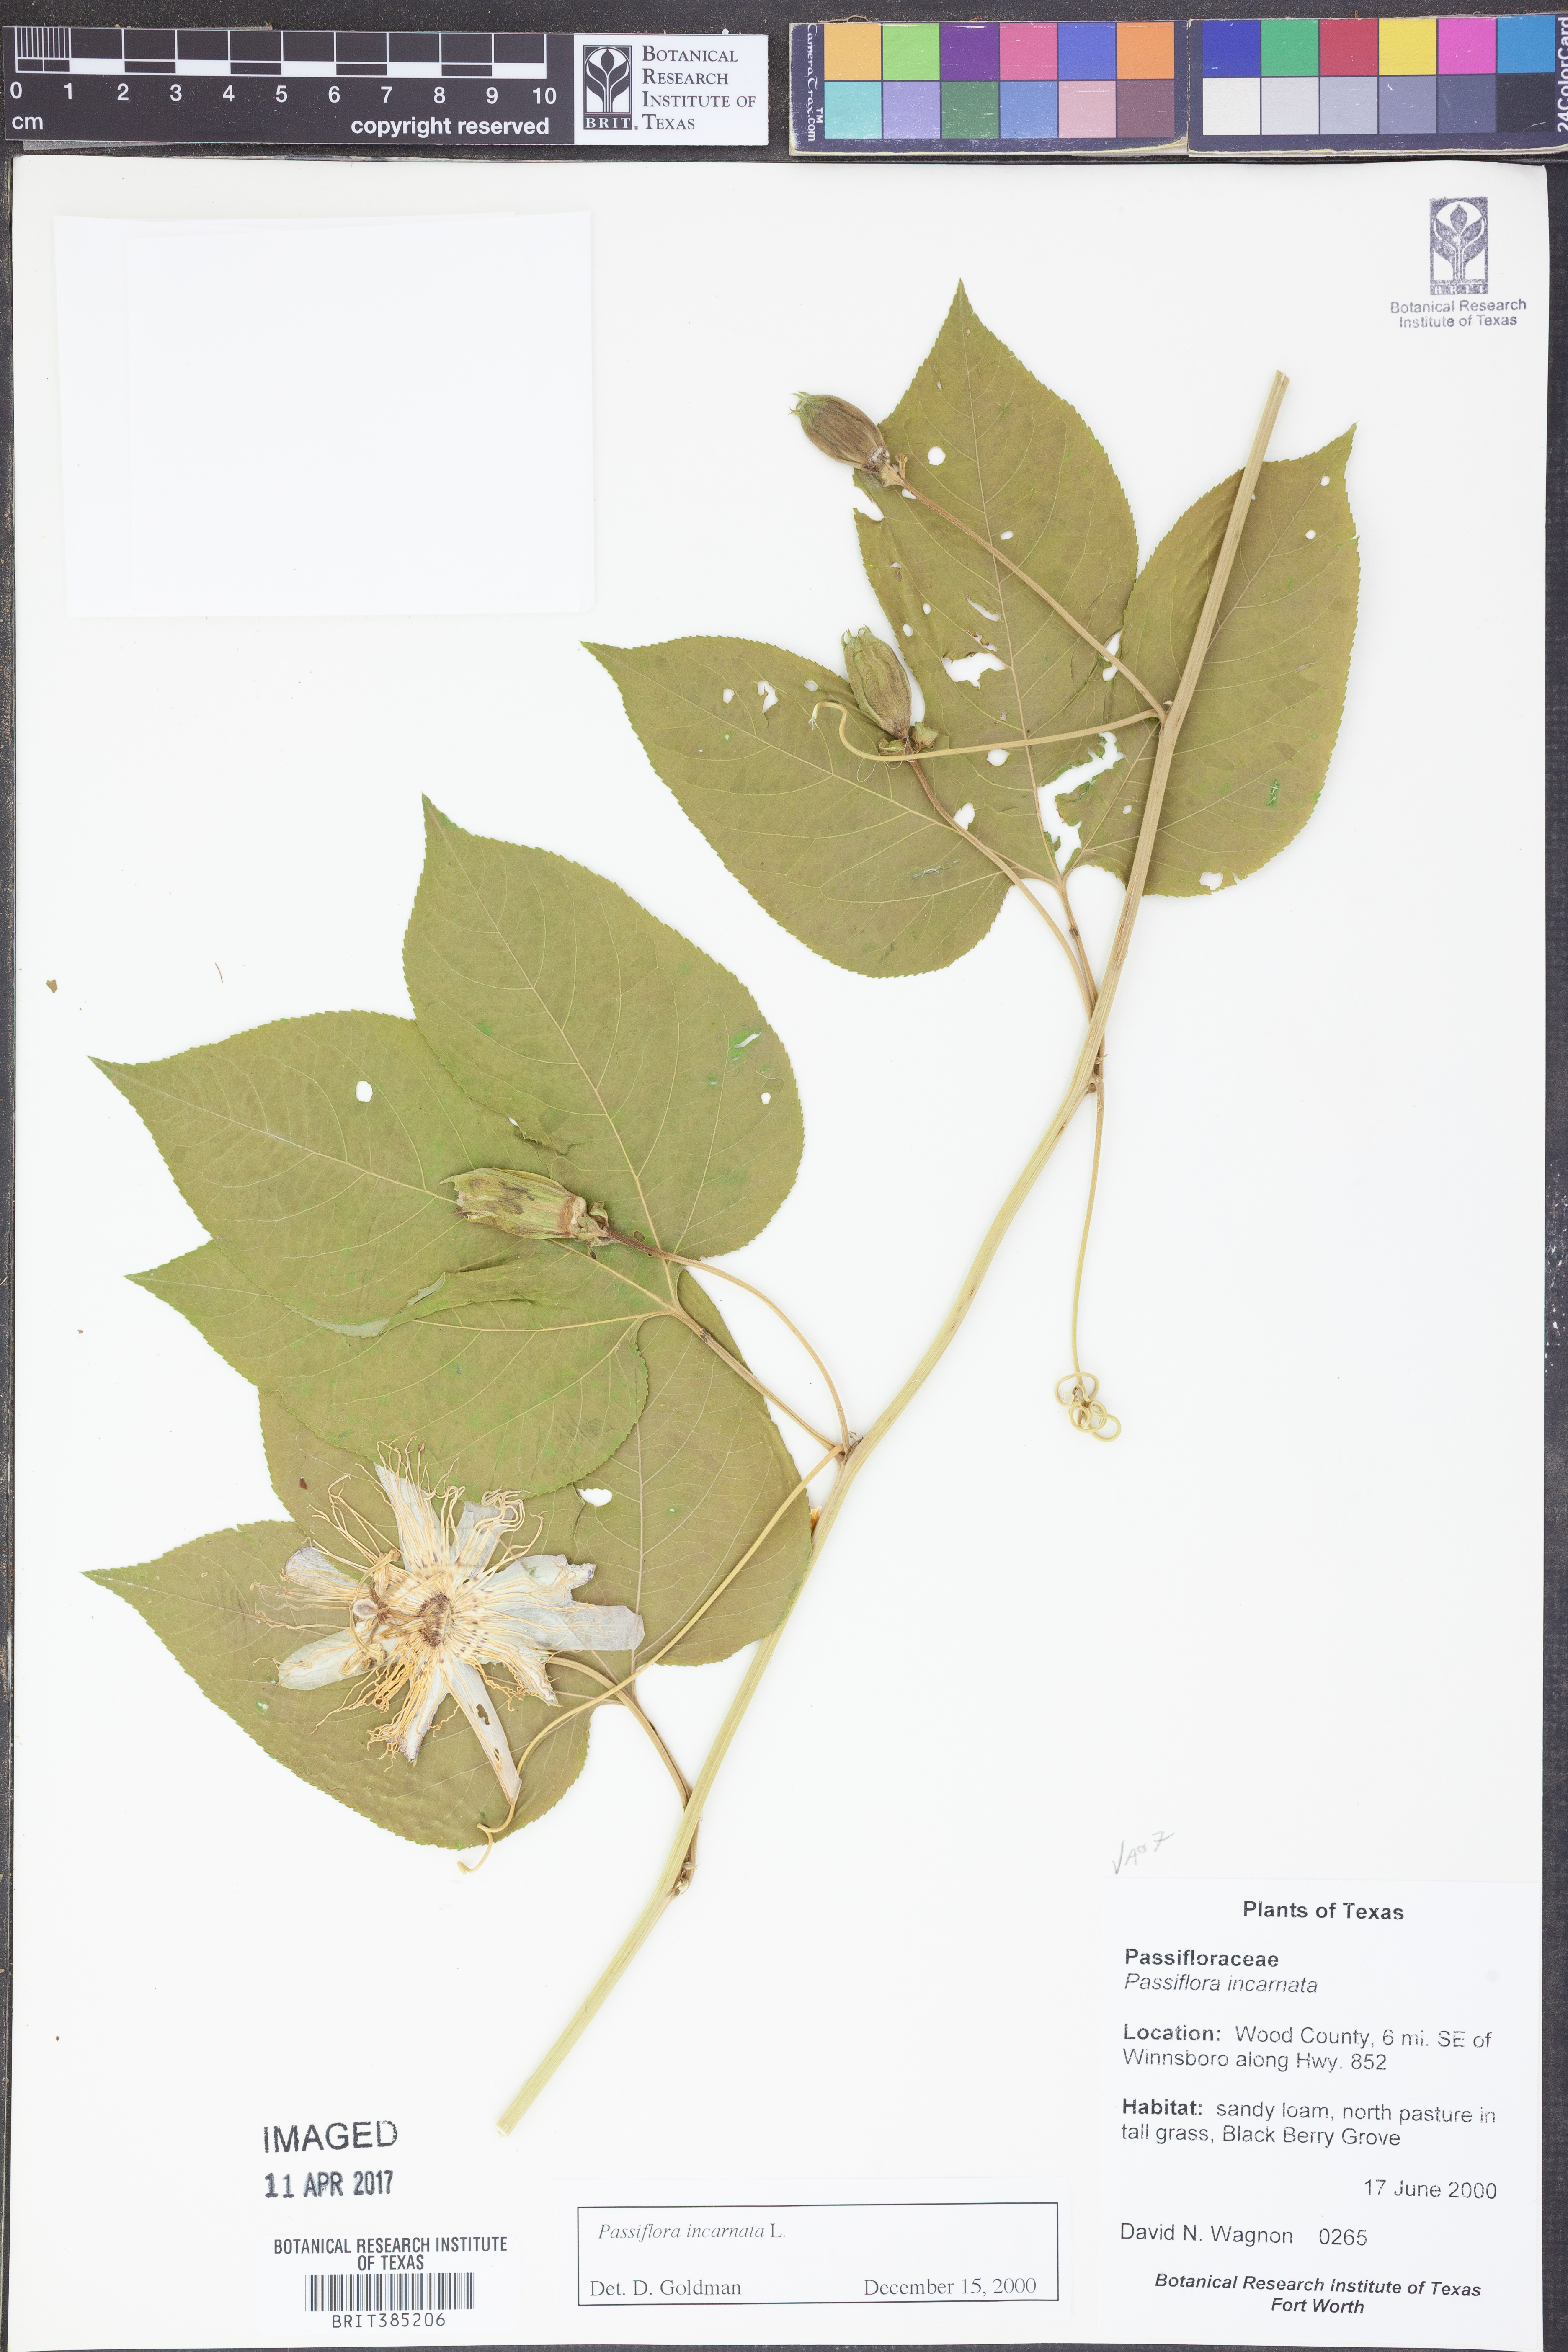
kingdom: Plantae
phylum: Tracheophyta
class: Magnoliopsida
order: Malpighiales
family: Passifloraceae
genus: Passiflora
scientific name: Passiflora incarnata
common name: Apricot-vine
